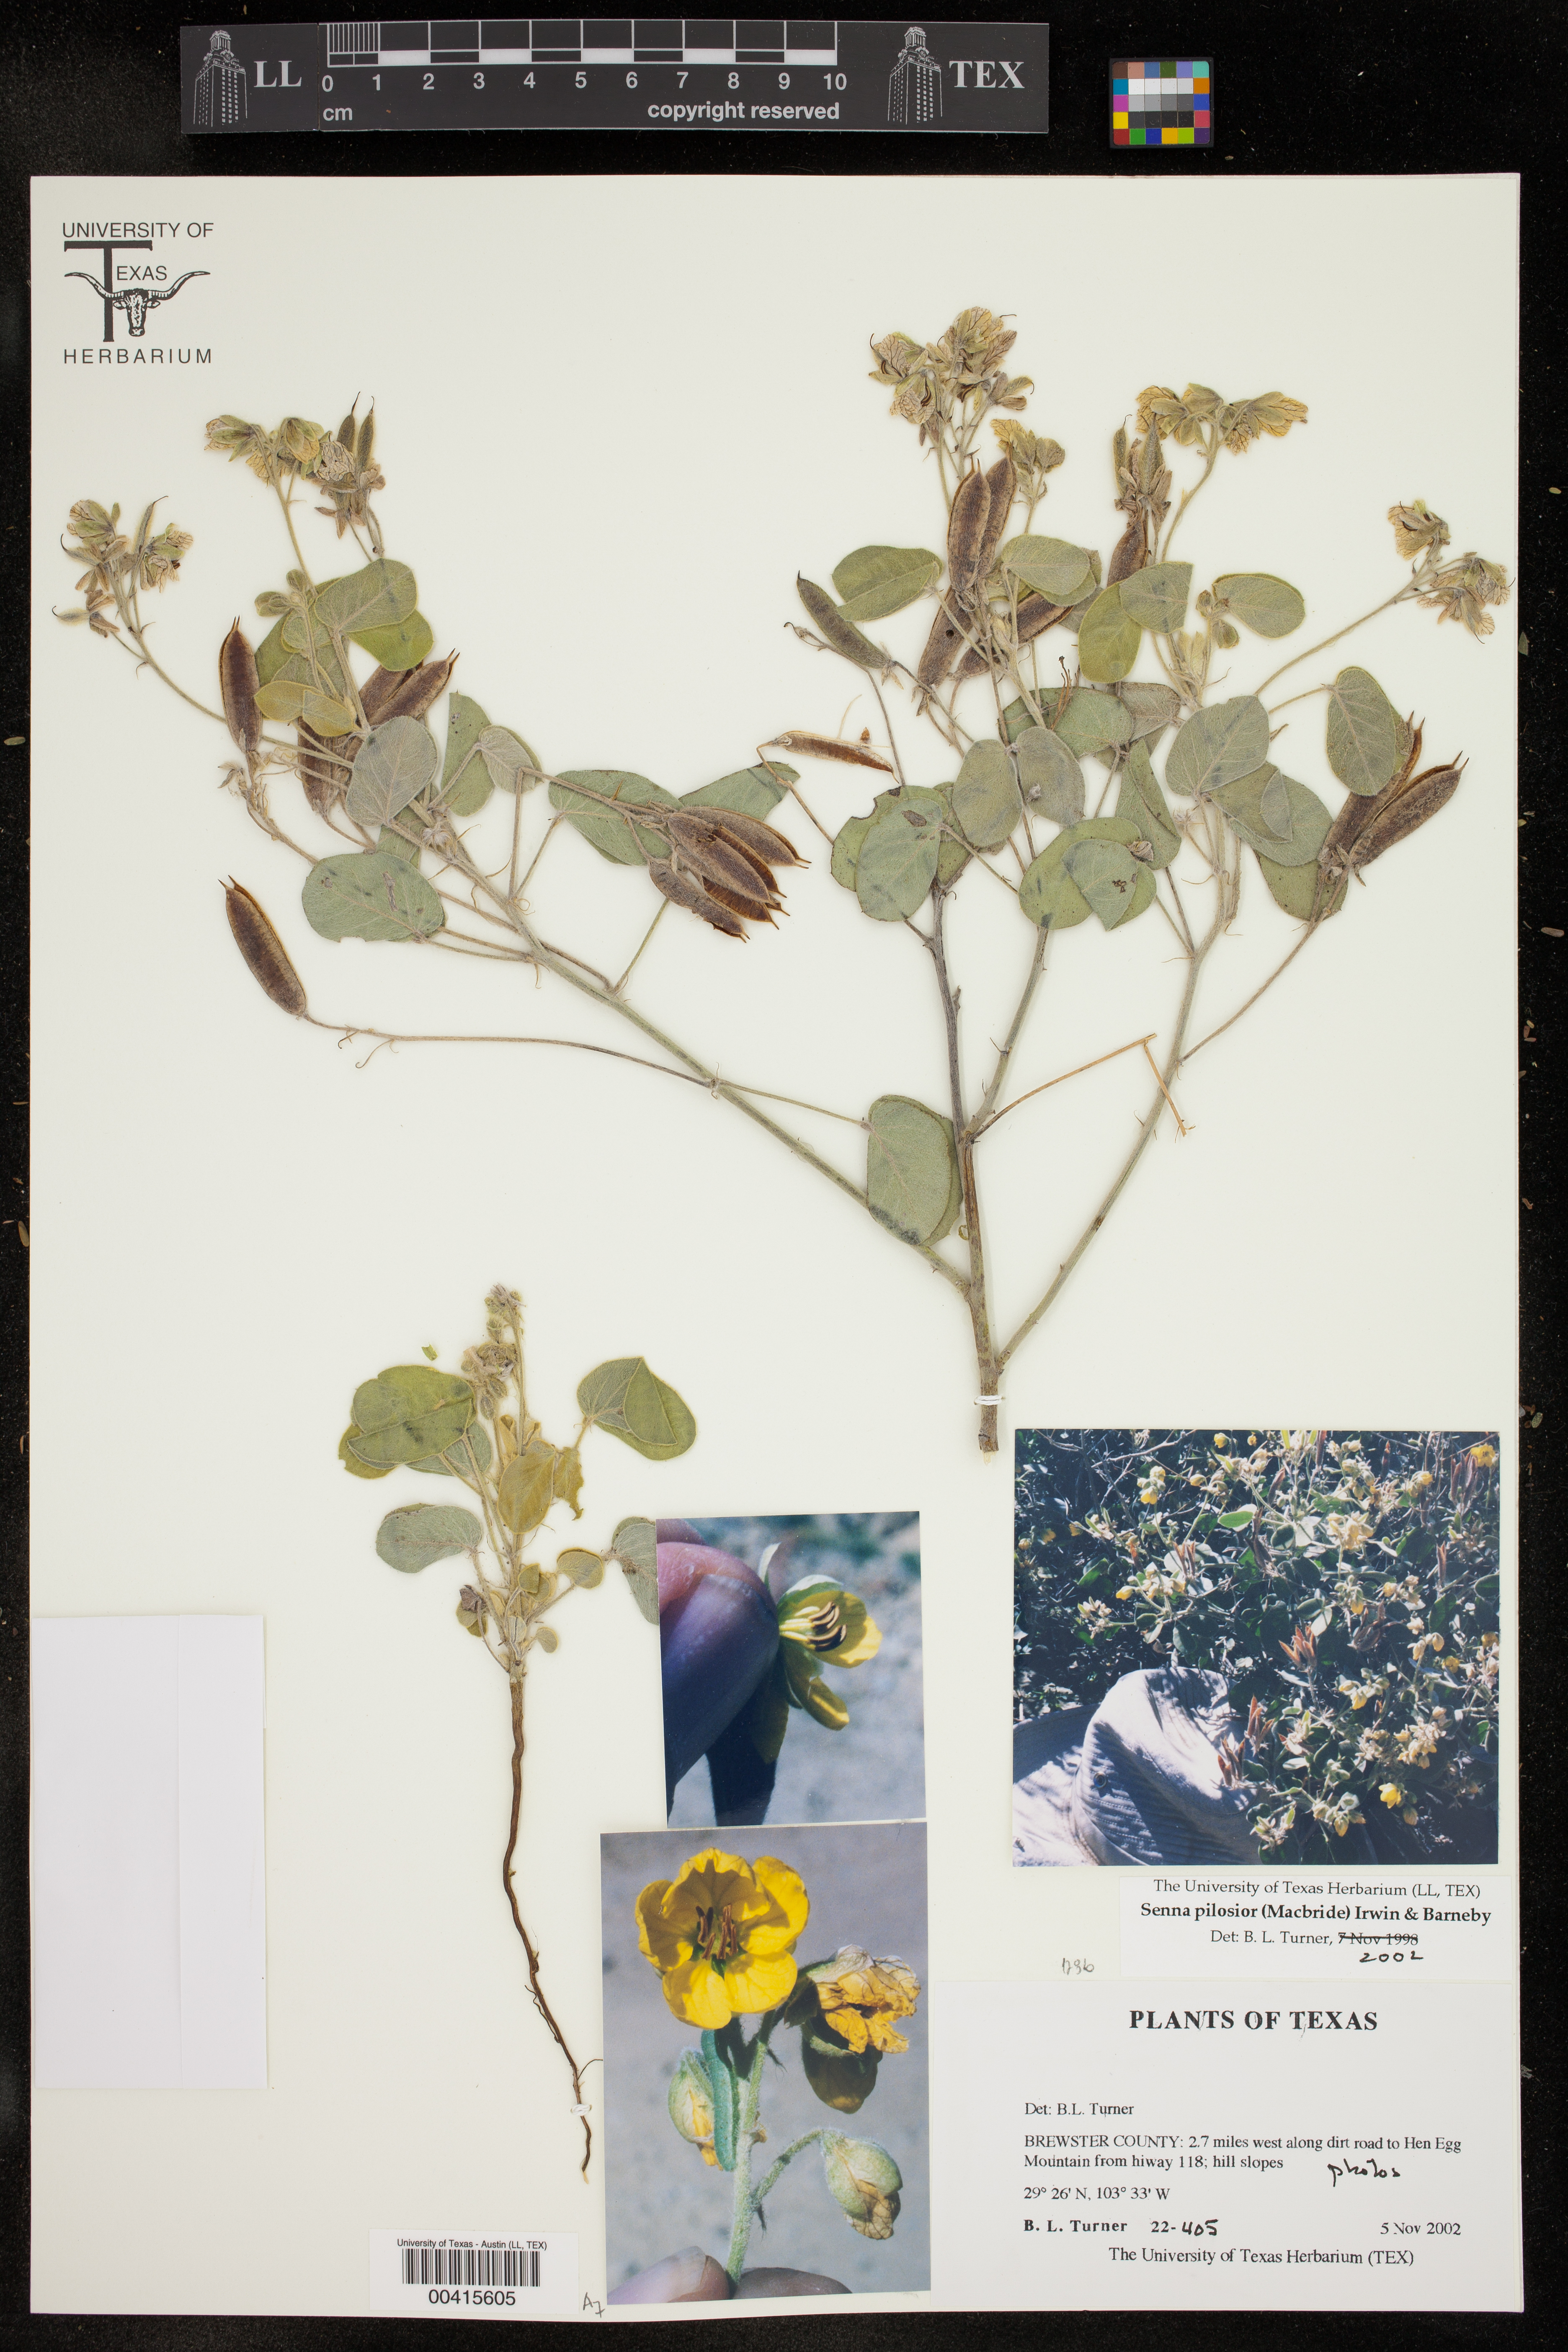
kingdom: Plantae
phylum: Tracheophyta
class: Magnoliopsida
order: Fabales
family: Fabaceae
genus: Senna
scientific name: Senna pilosior
